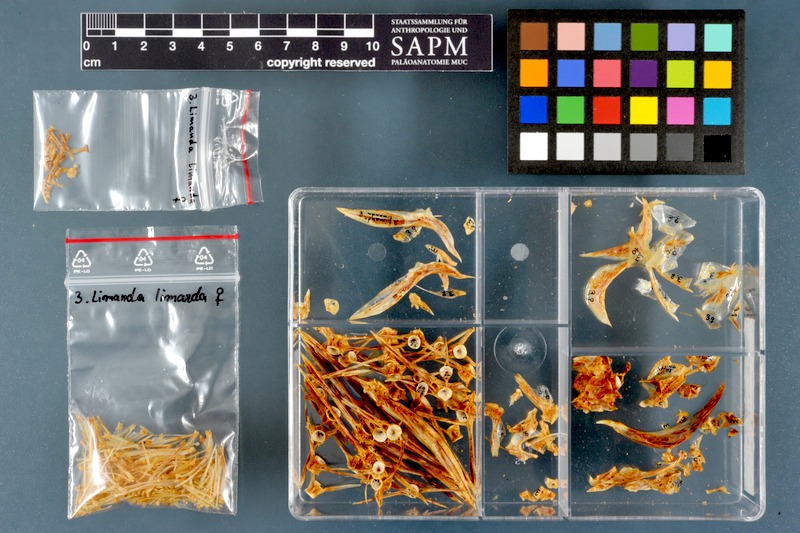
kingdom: Animalia
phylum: Chordata
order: Pleuronectiformes
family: Pleuronectidae
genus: Limanda
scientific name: Limanda limanda
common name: Dab
